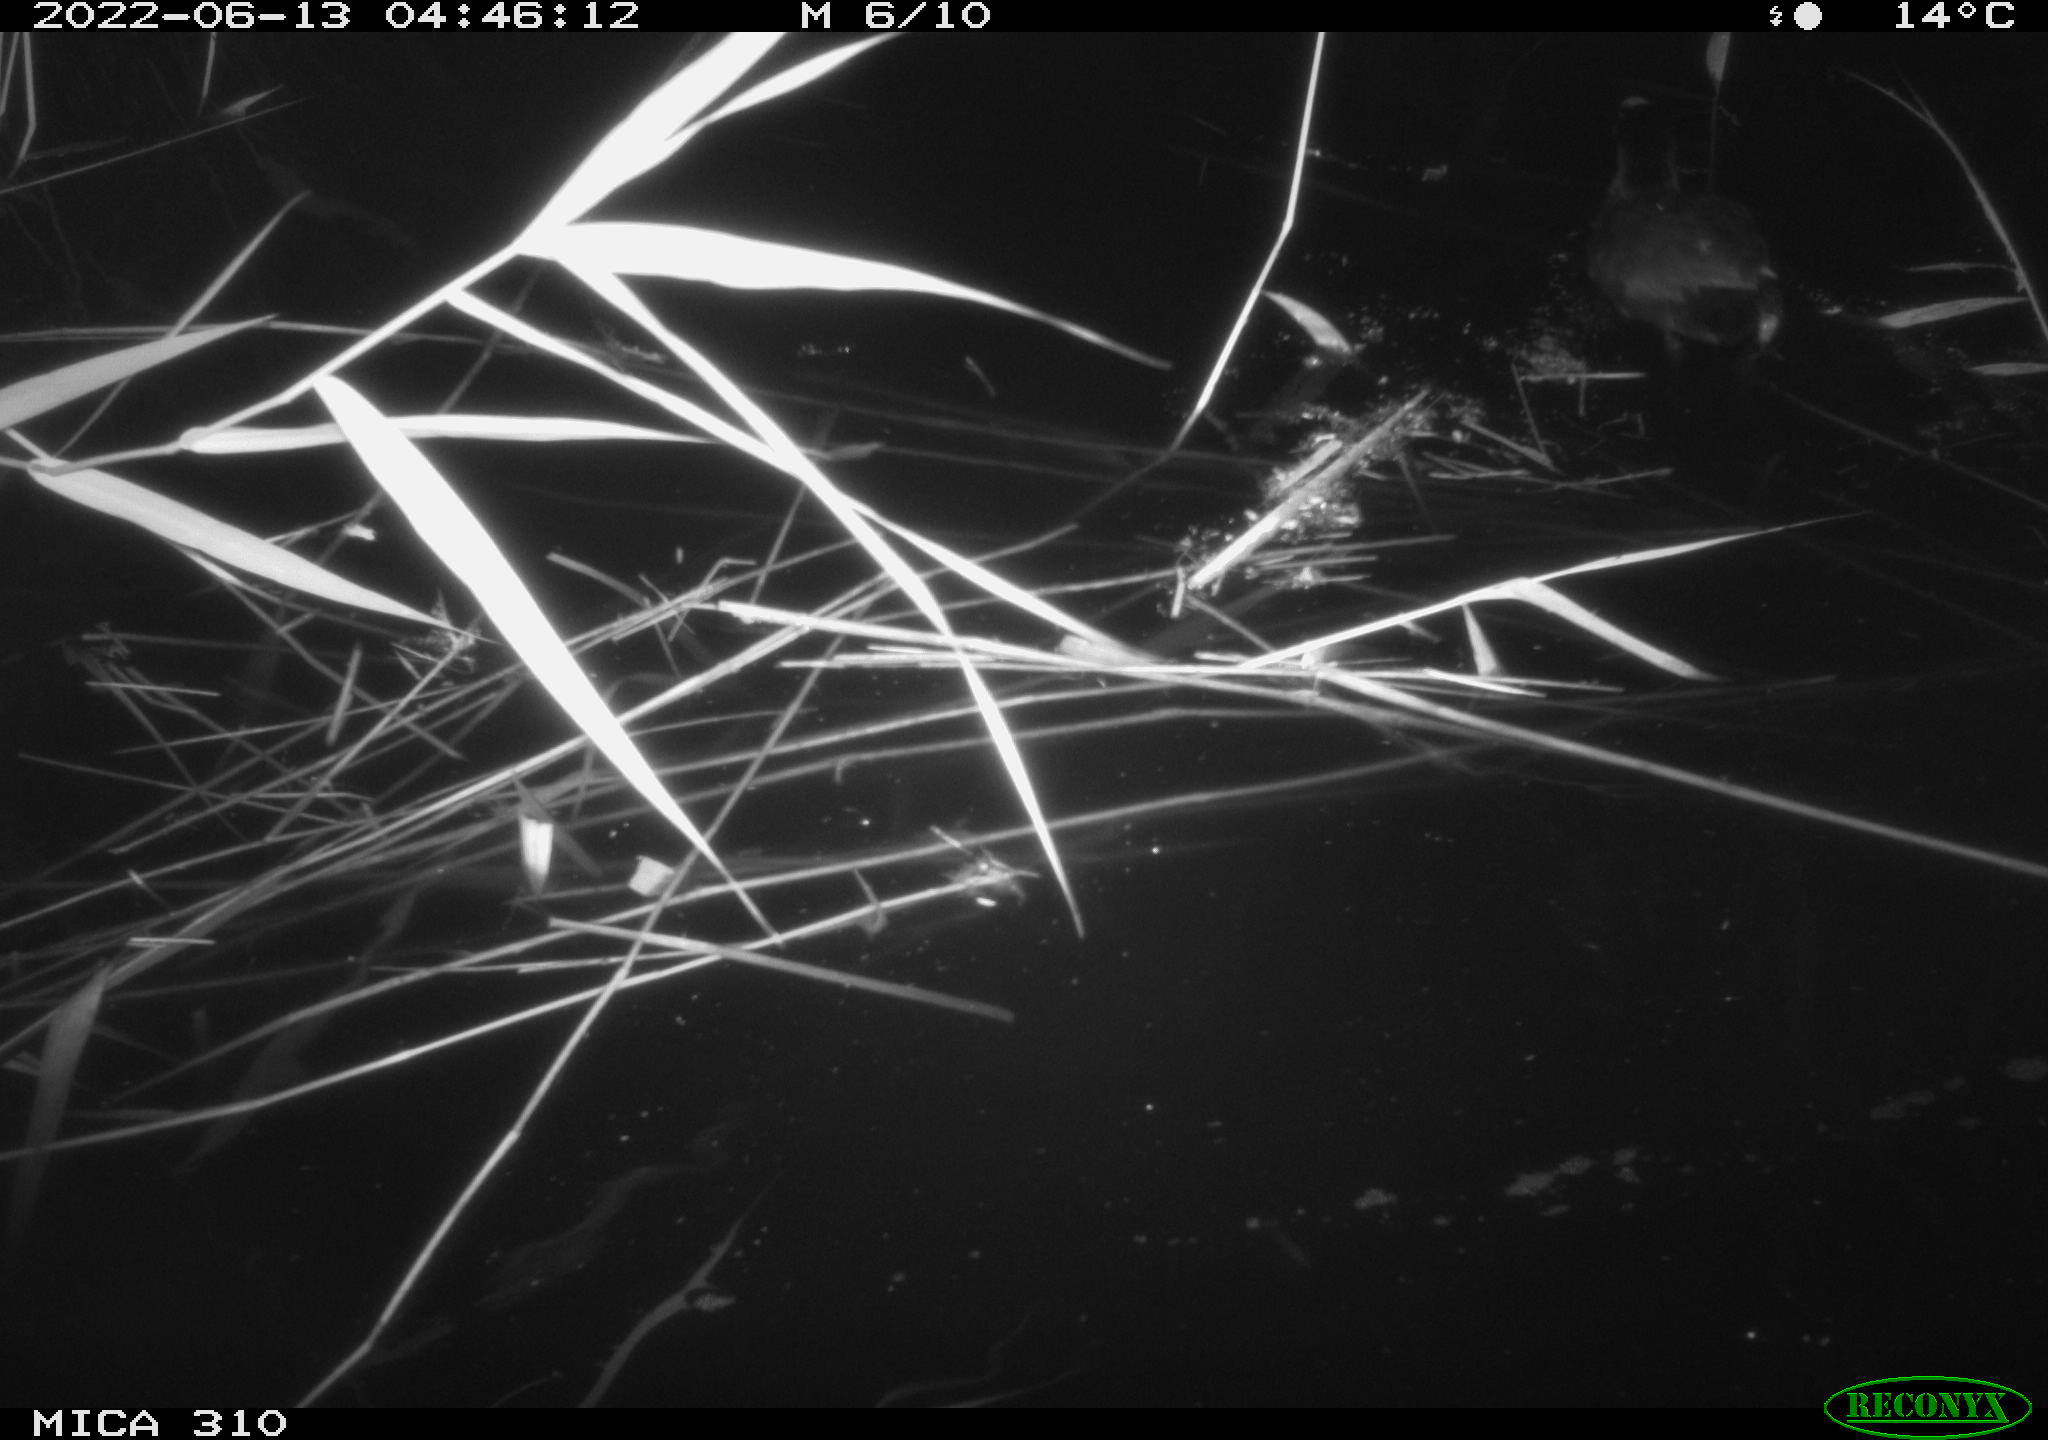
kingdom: Animalia
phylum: Chordata
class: Aves
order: Gruiformes
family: Rallidae
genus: Fulica
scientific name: Fulica atra
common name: Eurasian coot
